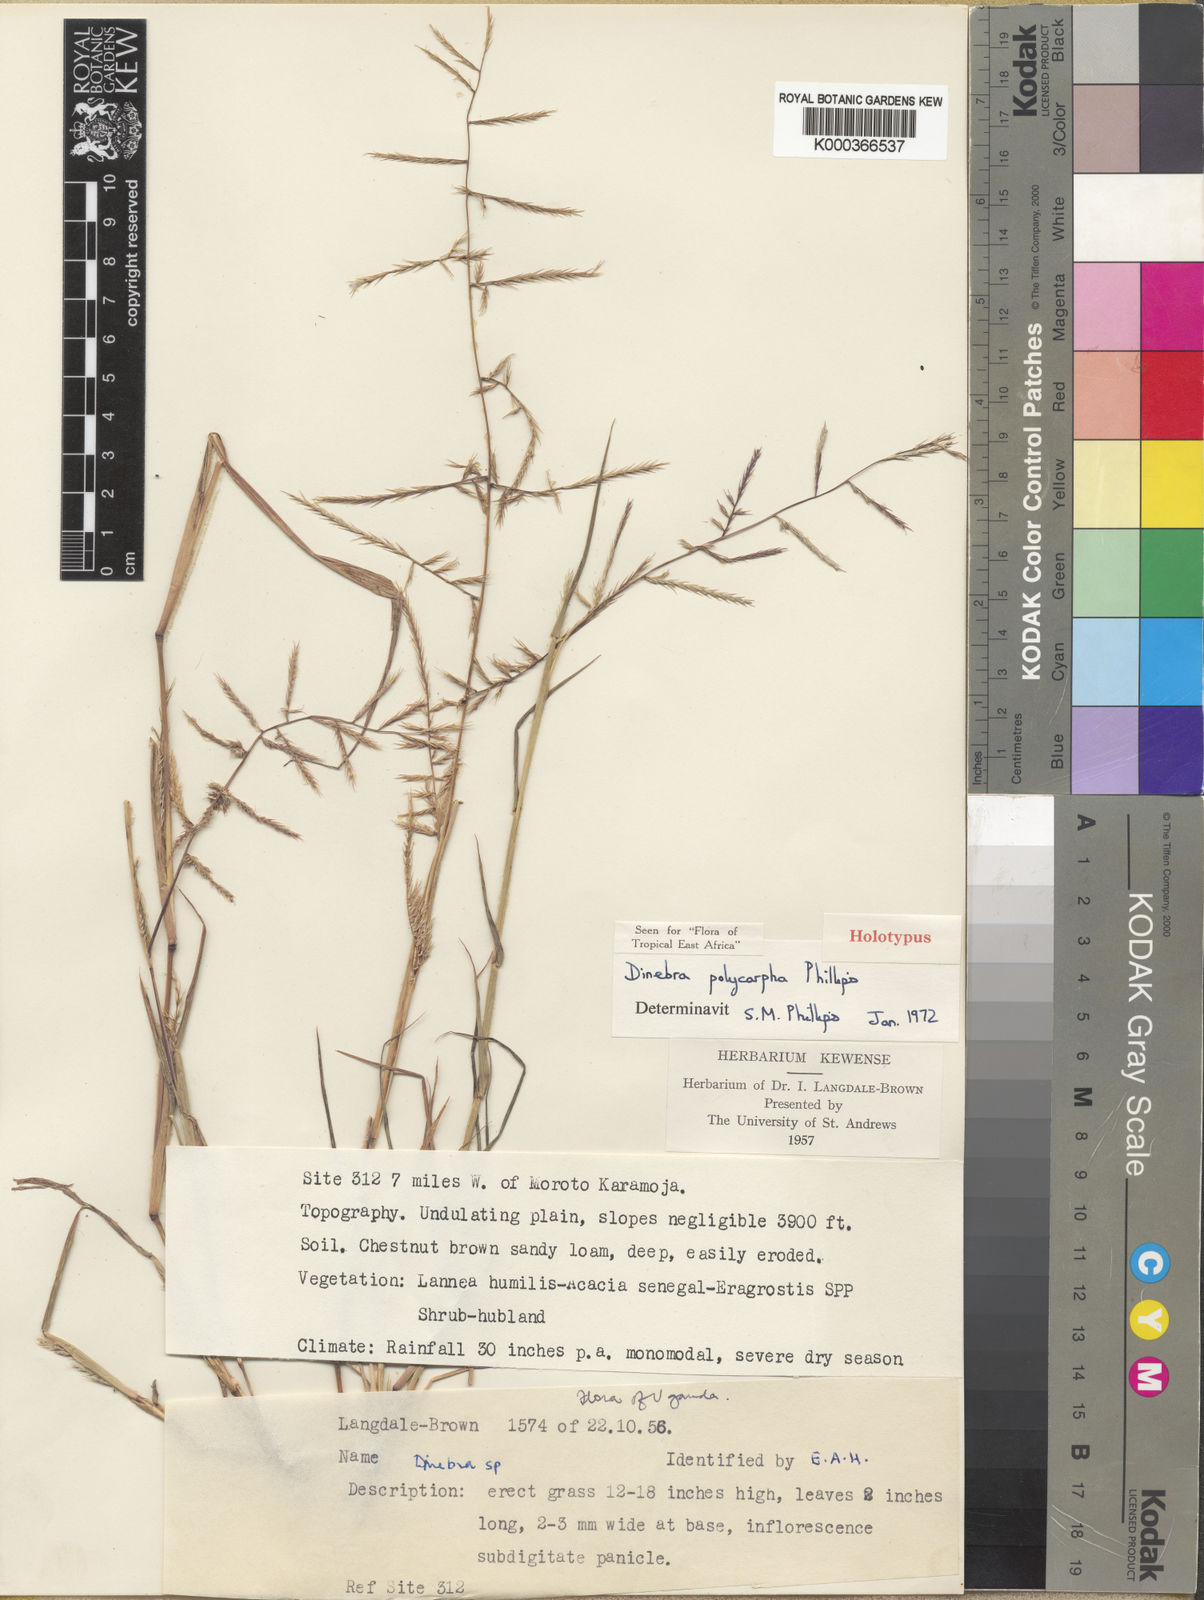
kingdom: Plantae
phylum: Tracheophyta
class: Liliopsida
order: Poales
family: Poaceae
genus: Dinebra
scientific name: Dinebra polycarpha
